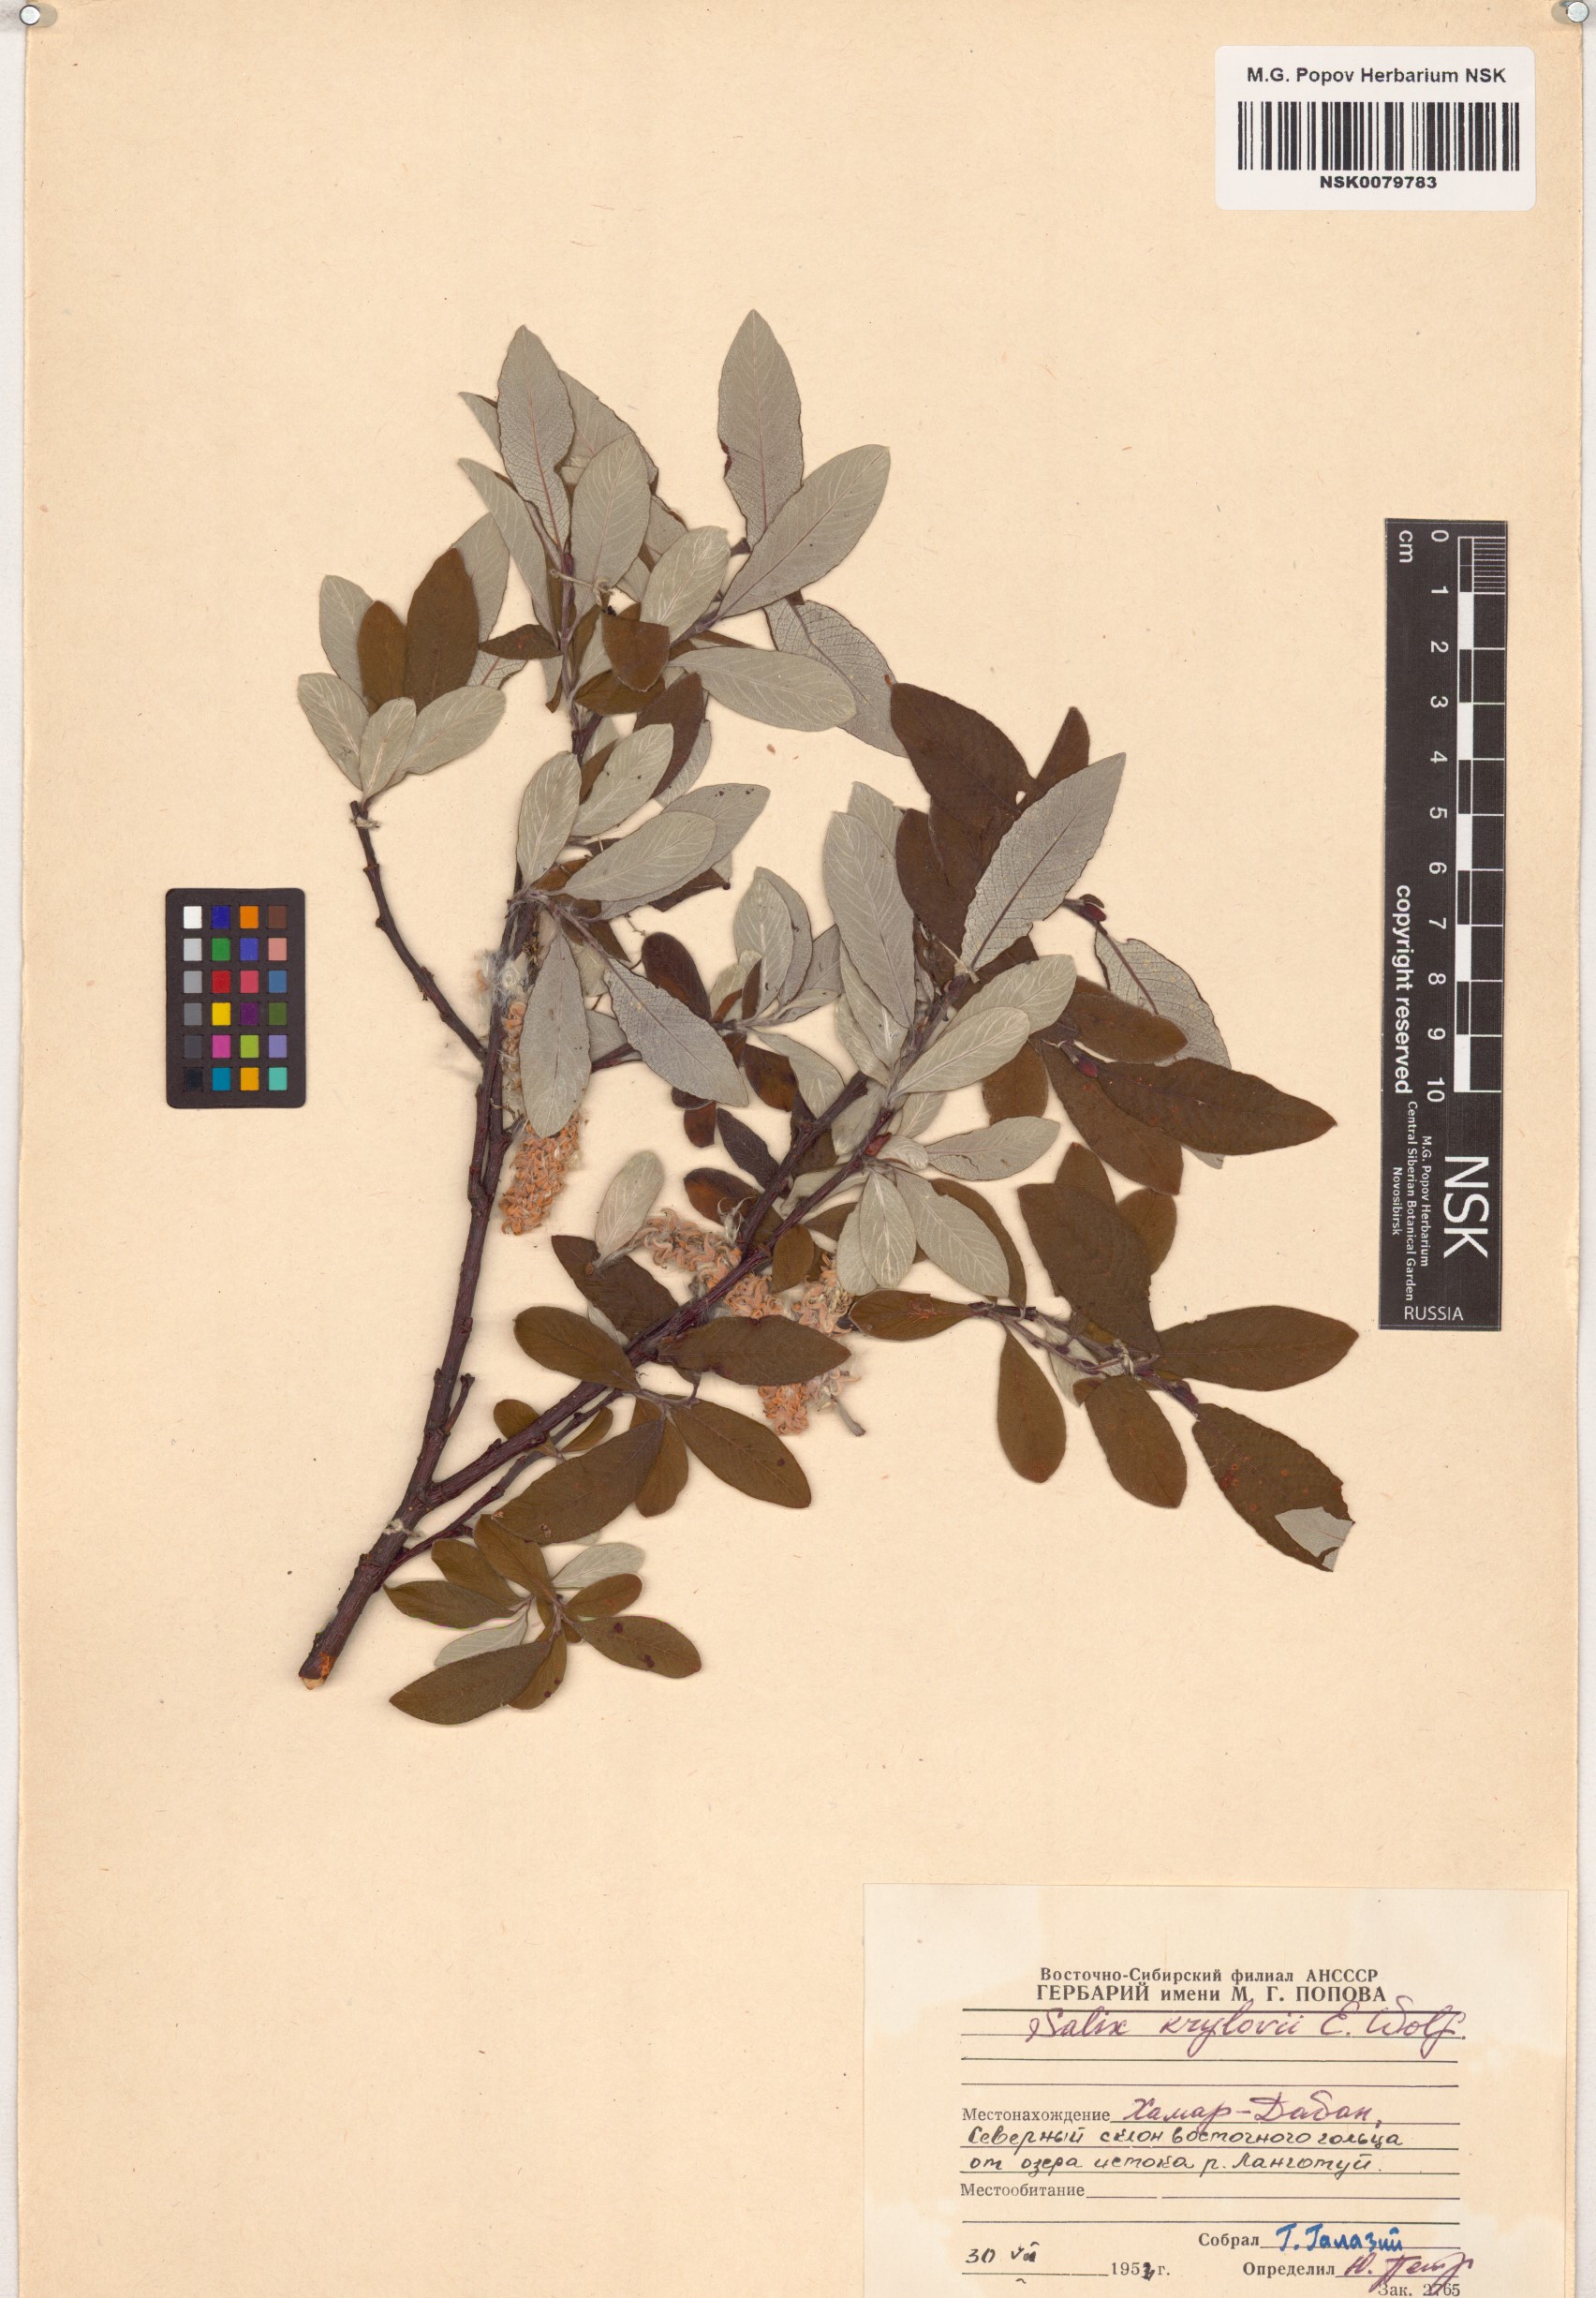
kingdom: Plantae
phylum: Tracheophyta
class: Magnoliopsida
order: Malpighiales
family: Salicaceae
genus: Salix
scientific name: Salix krylovii
